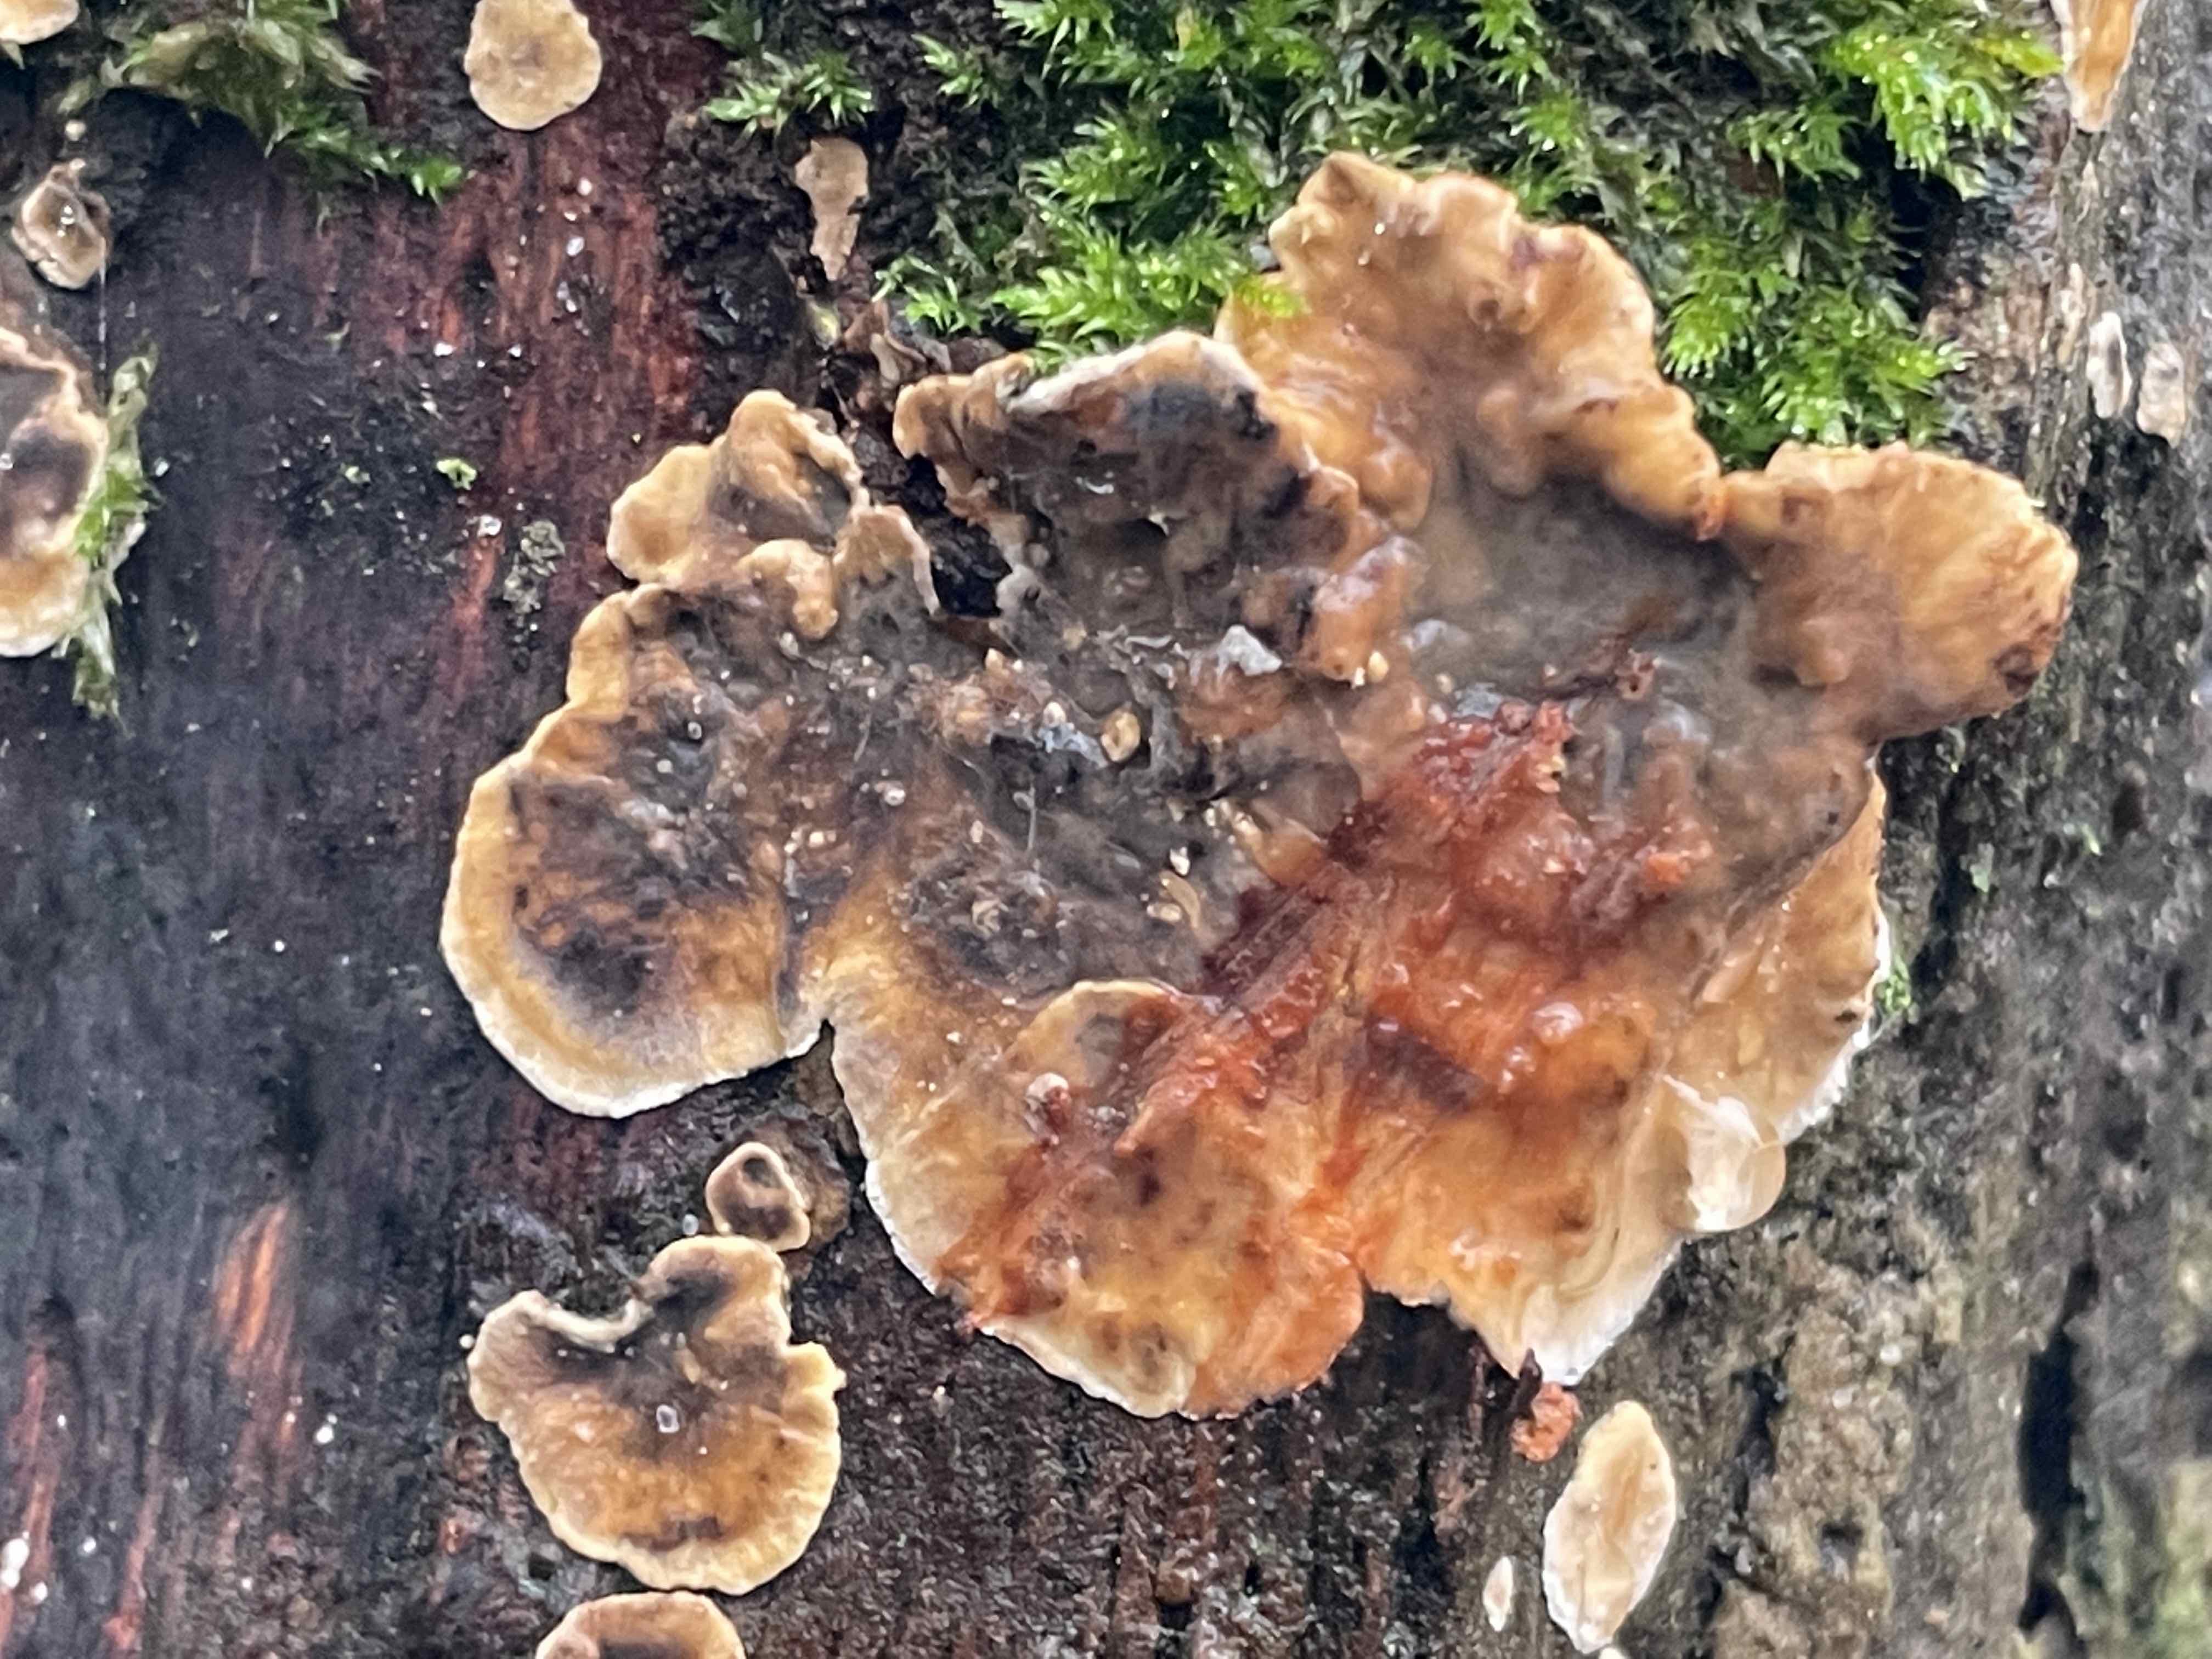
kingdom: Fungi
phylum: Basidiomycota
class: Agaricomycetes
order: Russulales
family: Stereaceae
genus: Stereum
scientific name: Stereum rugosum
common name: rynket lædersvamp
